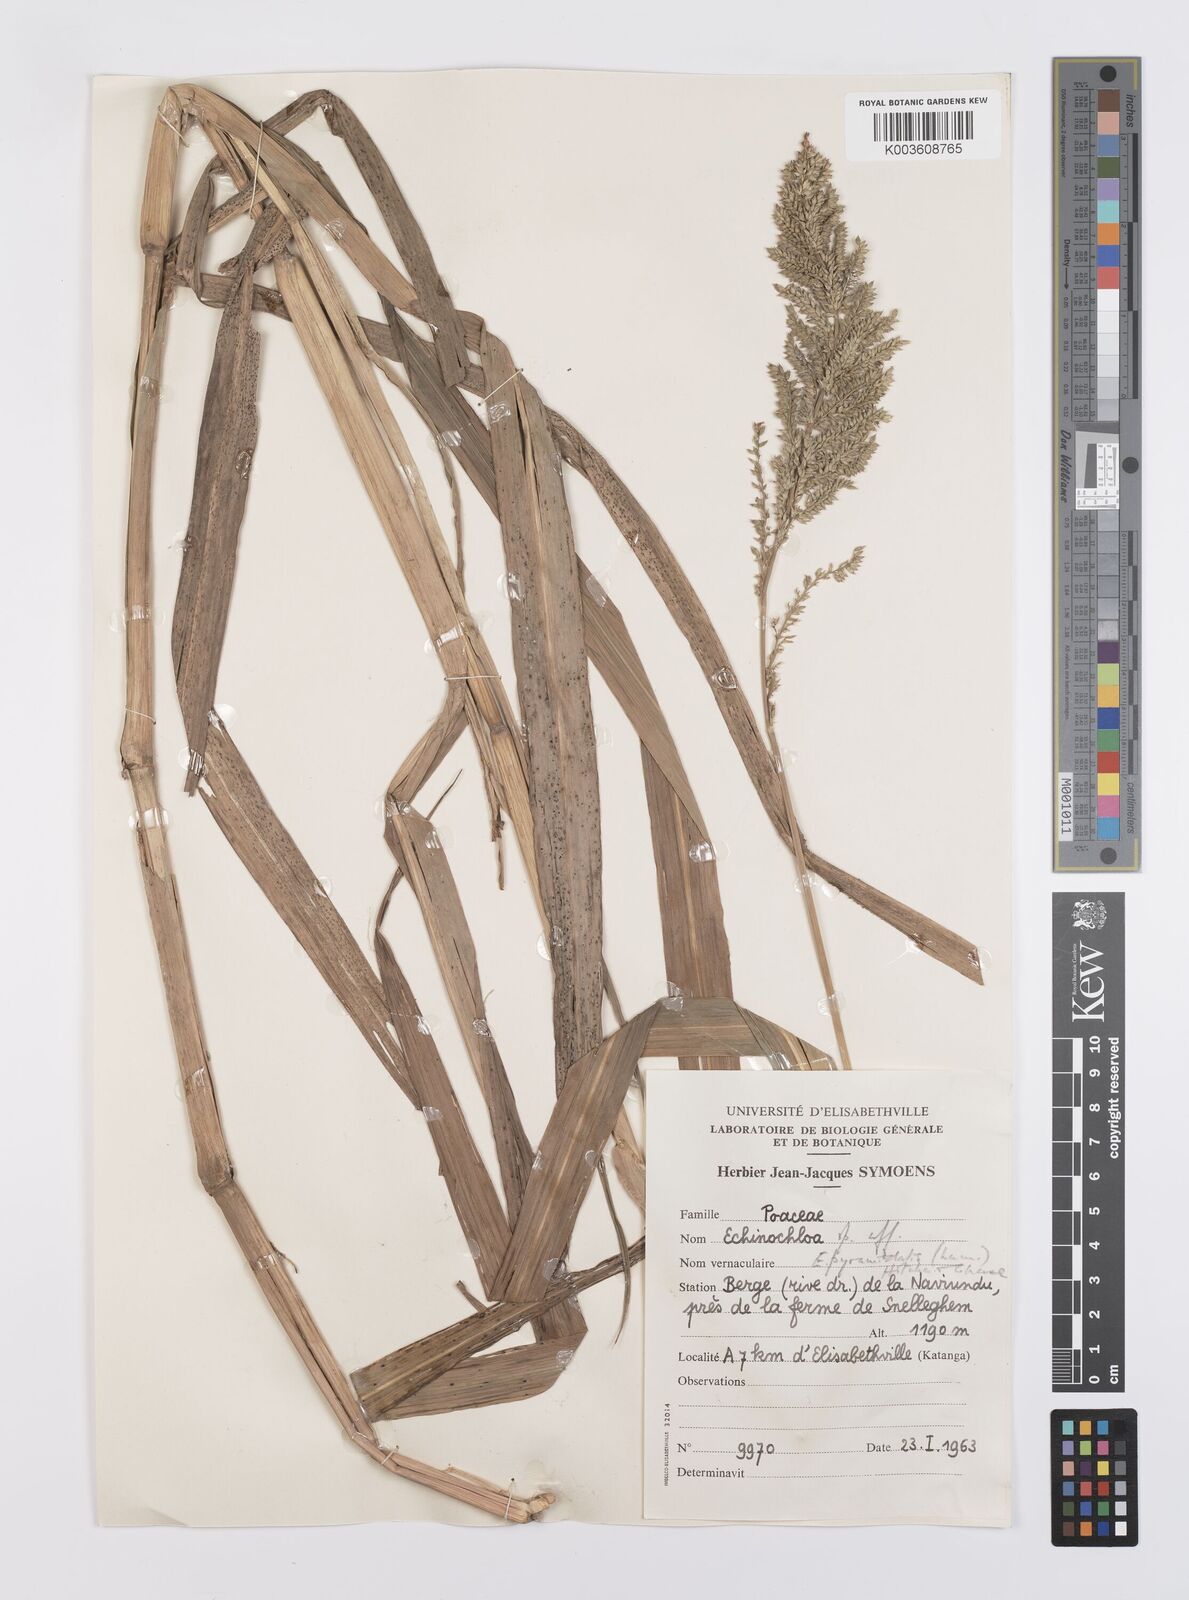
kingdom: Plantae
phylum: Tracheophyta
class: Liliopsida
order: Poales
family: Poaceae
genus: Echinochloa
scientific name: Echinochloa pyramidalis
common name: Antelope grass
